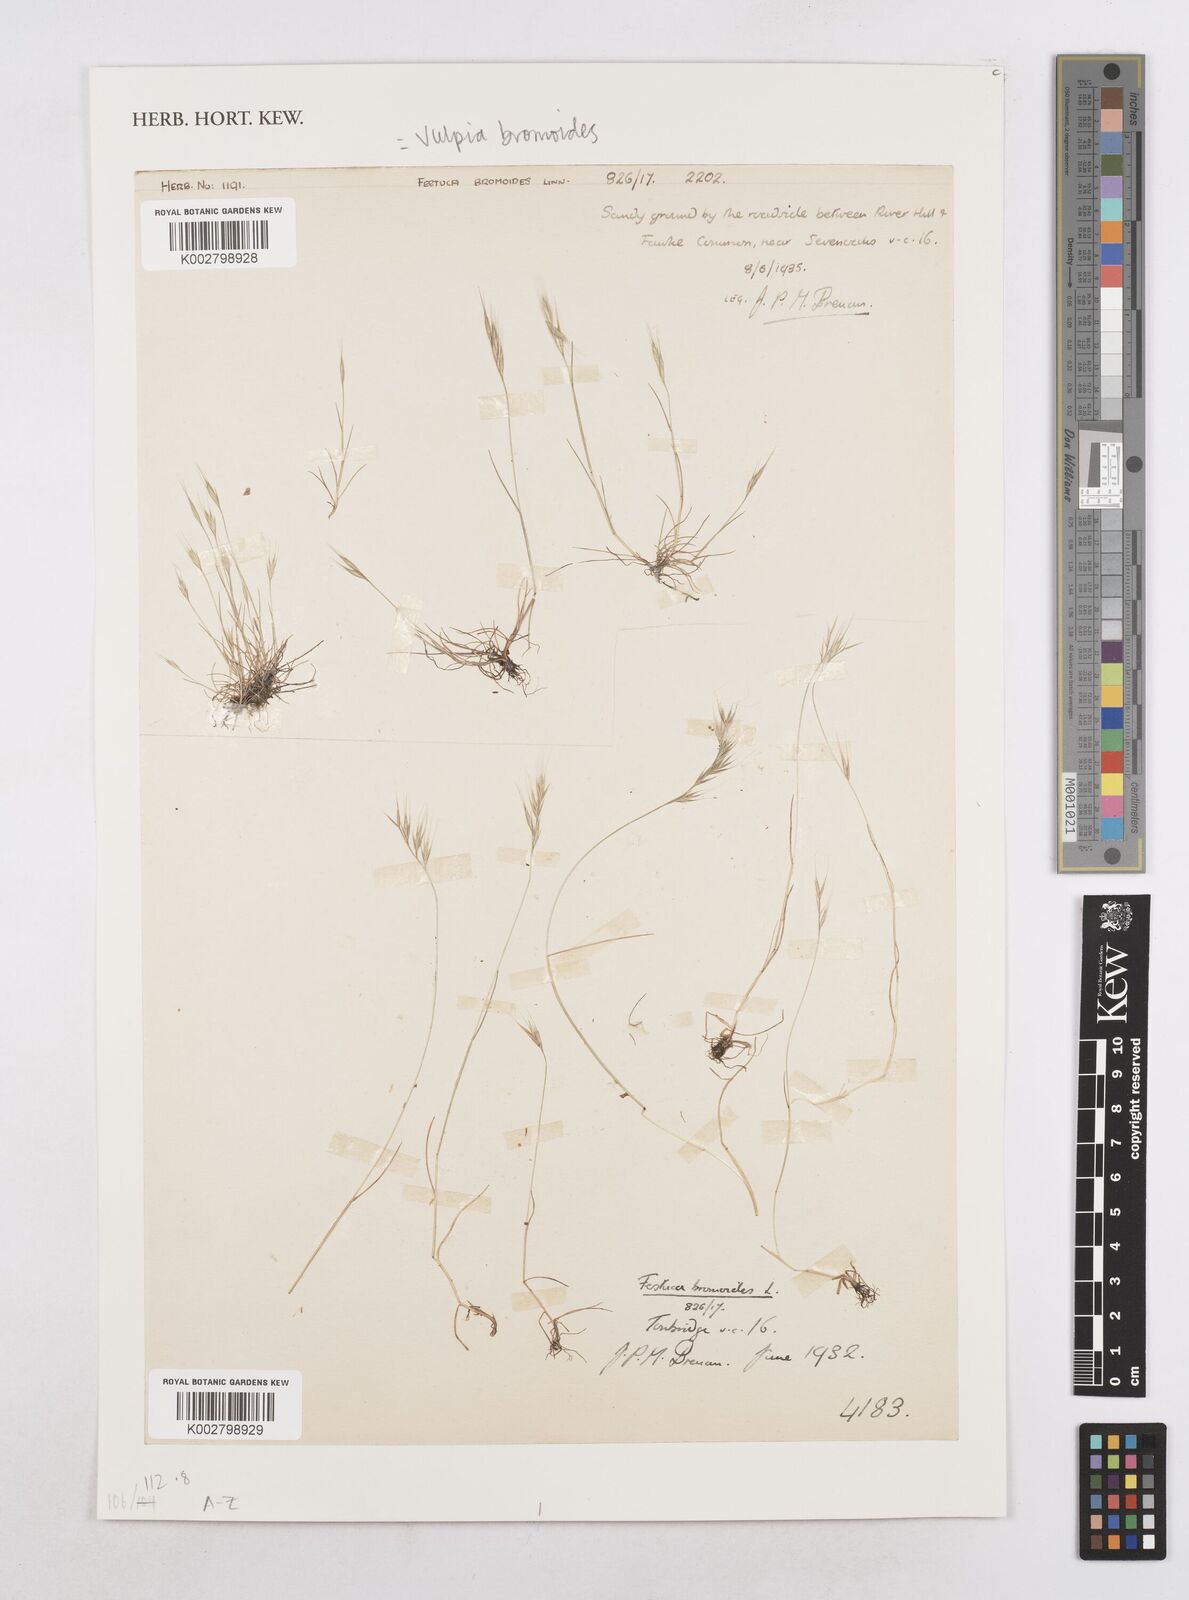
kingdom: Plantae
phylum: Tracheophyta
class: Liliopsida
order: Poales
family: Poaceae
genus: Festuca
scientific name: Festuca bromoides
